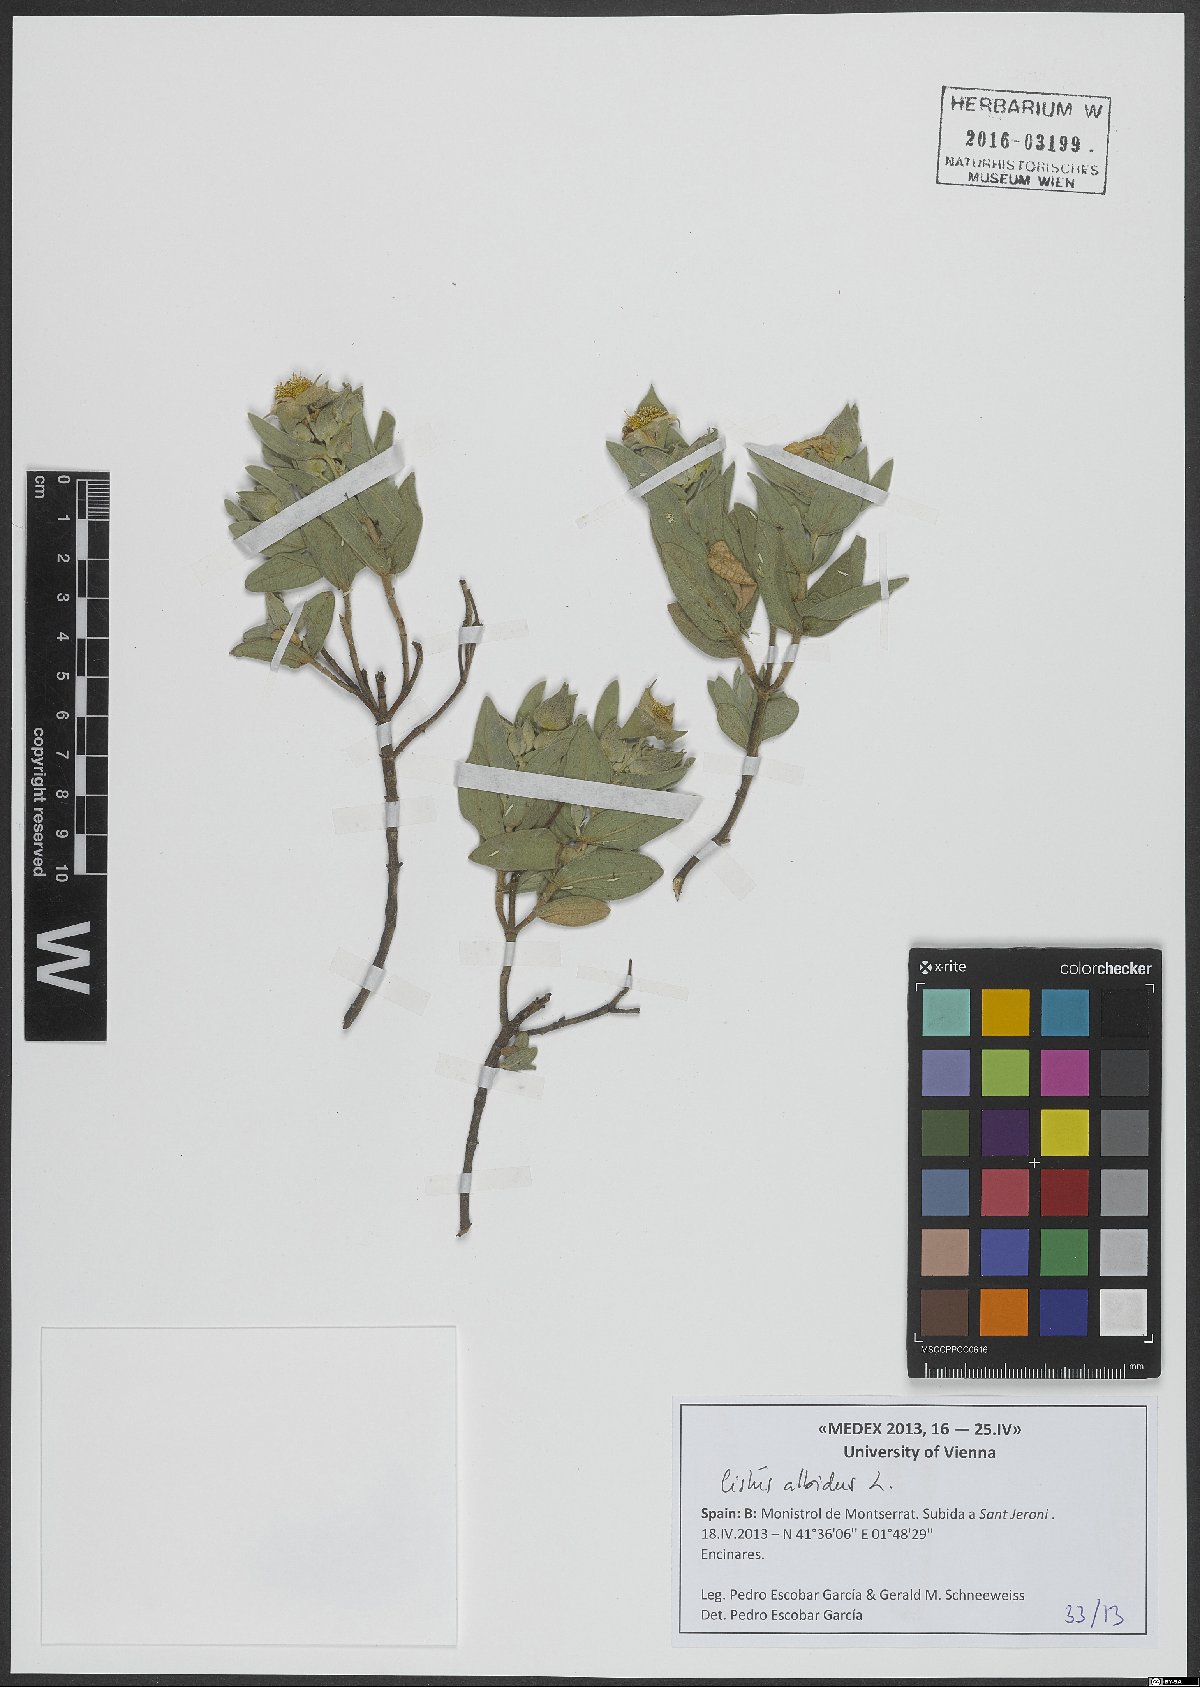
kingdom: Plantae
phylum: Tracheophyta
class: Magnoliopsida
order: Malvales
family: Cistaceae
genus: Cistus
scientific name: Cistus albidus
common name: White-leaf rock-rose
